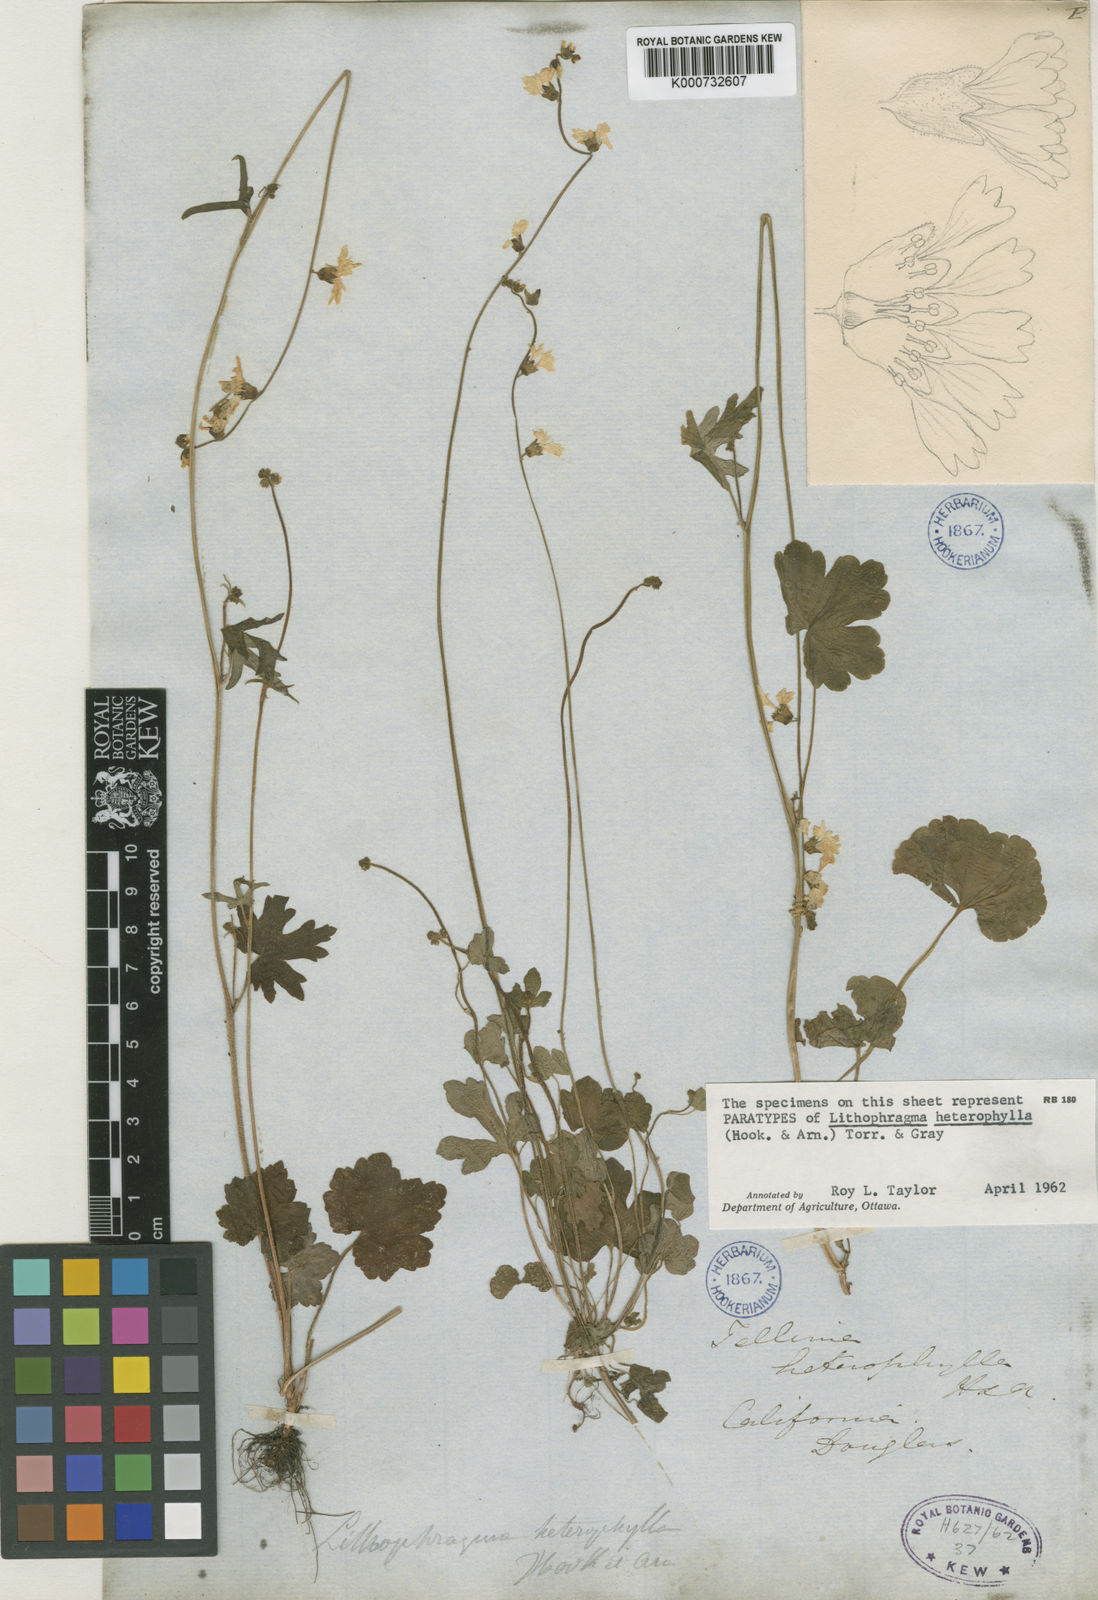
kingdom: Plantae
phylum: Tracheophyta
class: Magnoliopsida
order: Saxifragales
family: Saxifragaceae
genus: Lithophragma
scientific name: Lithophragma heterophyllum
